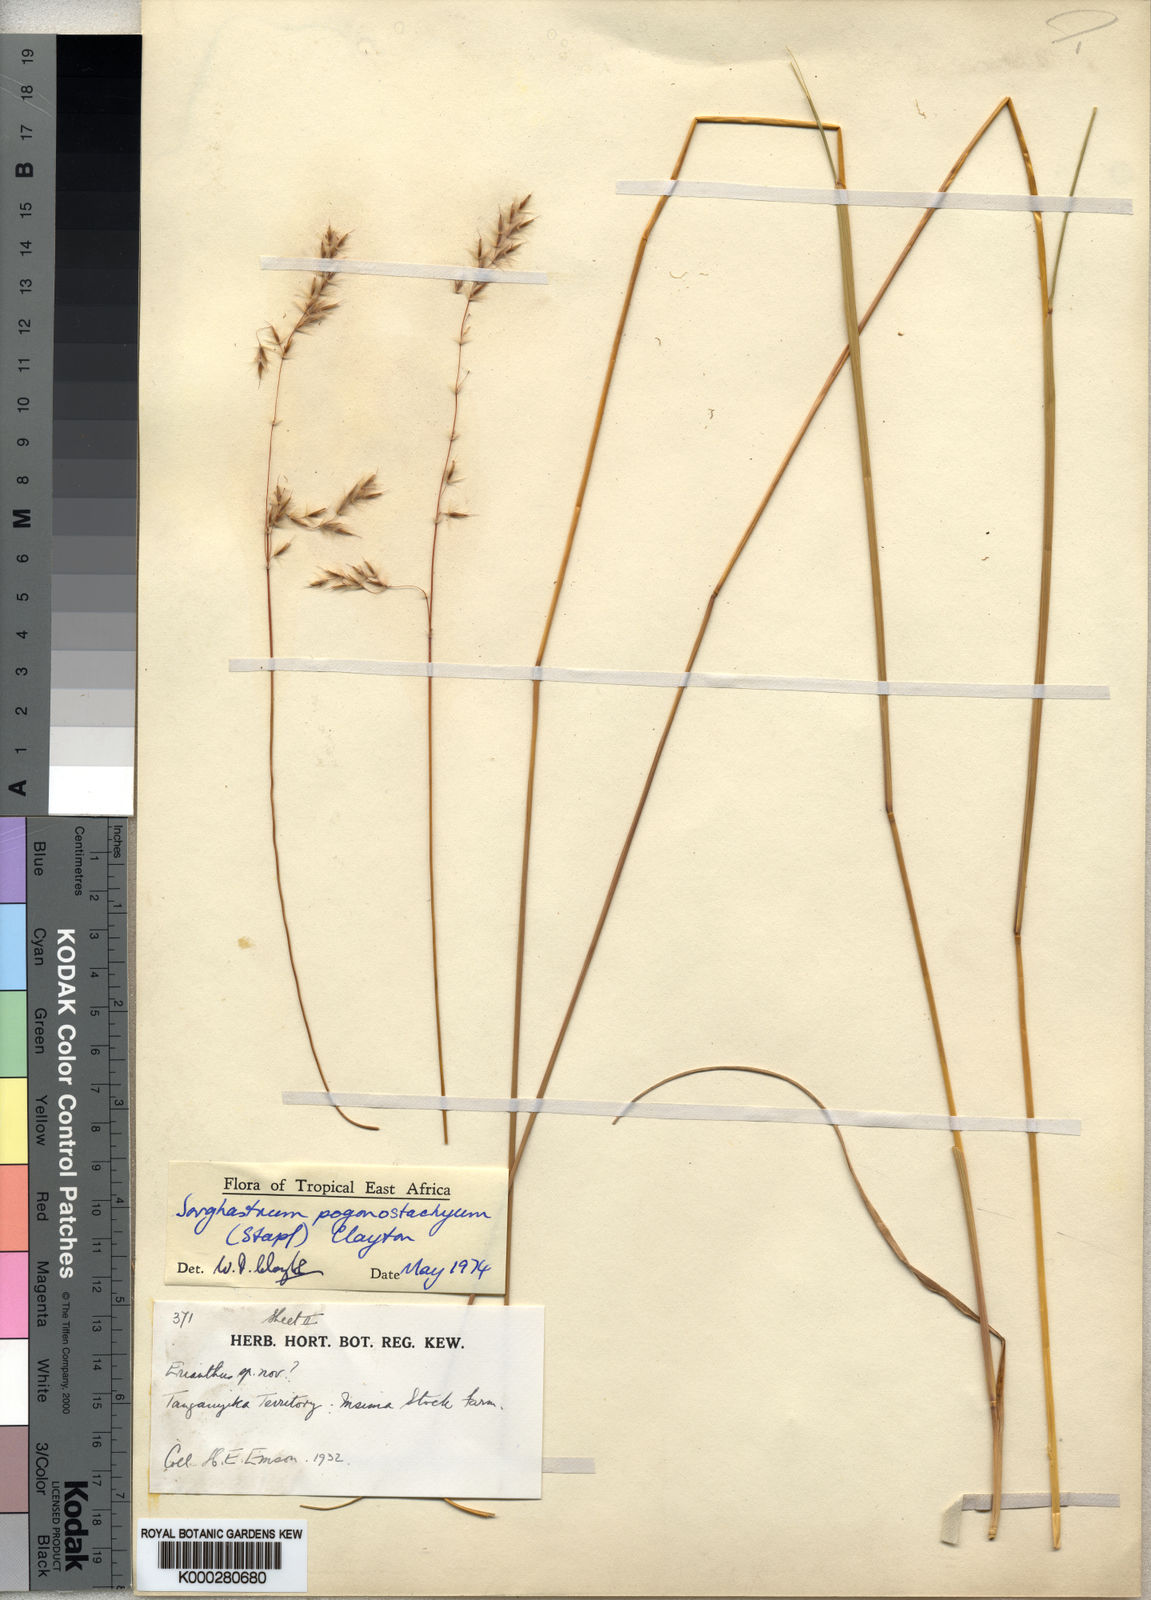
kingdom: Plantae
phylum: Tracheophyta
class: Liliopsida
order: Poales
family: Poaceae
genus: Sorghastrum
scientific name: Sorghastrum pogonostachyum
